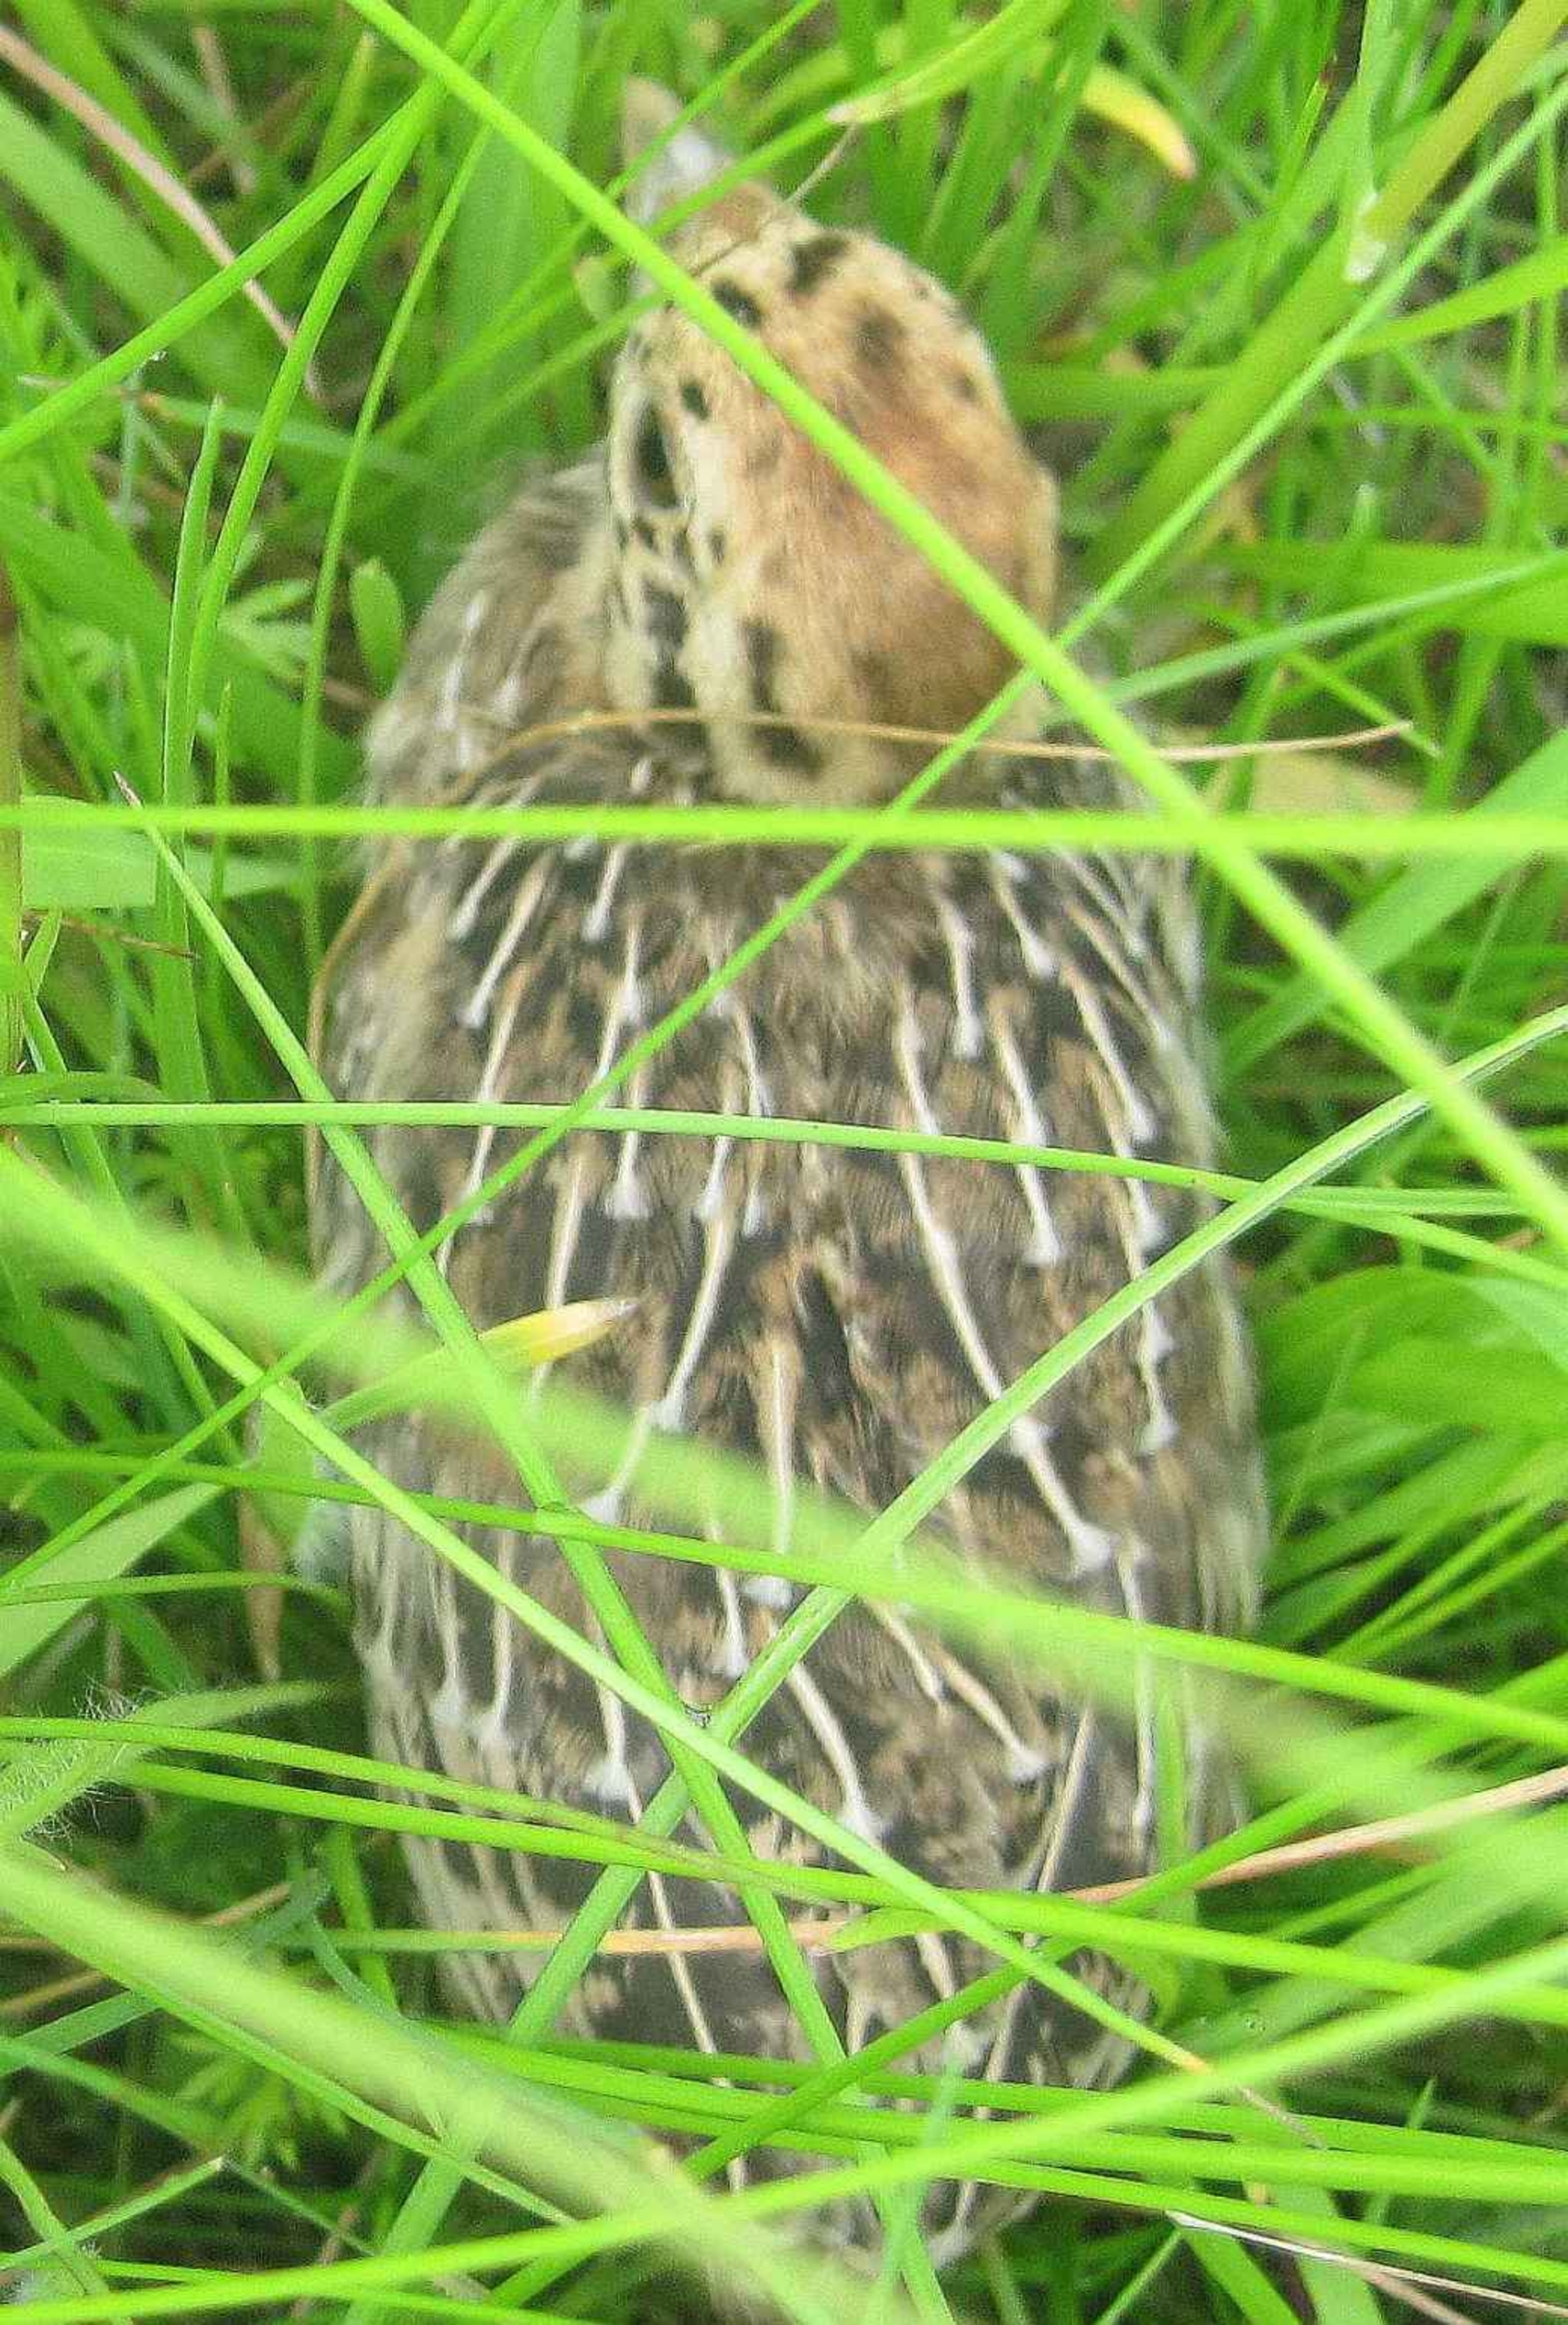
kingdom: Animalia
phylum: Chordata
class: Aves
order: Galliformes
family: Phasianidae
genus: Perdix
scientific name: Perdix perdix
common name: Agerhøne
